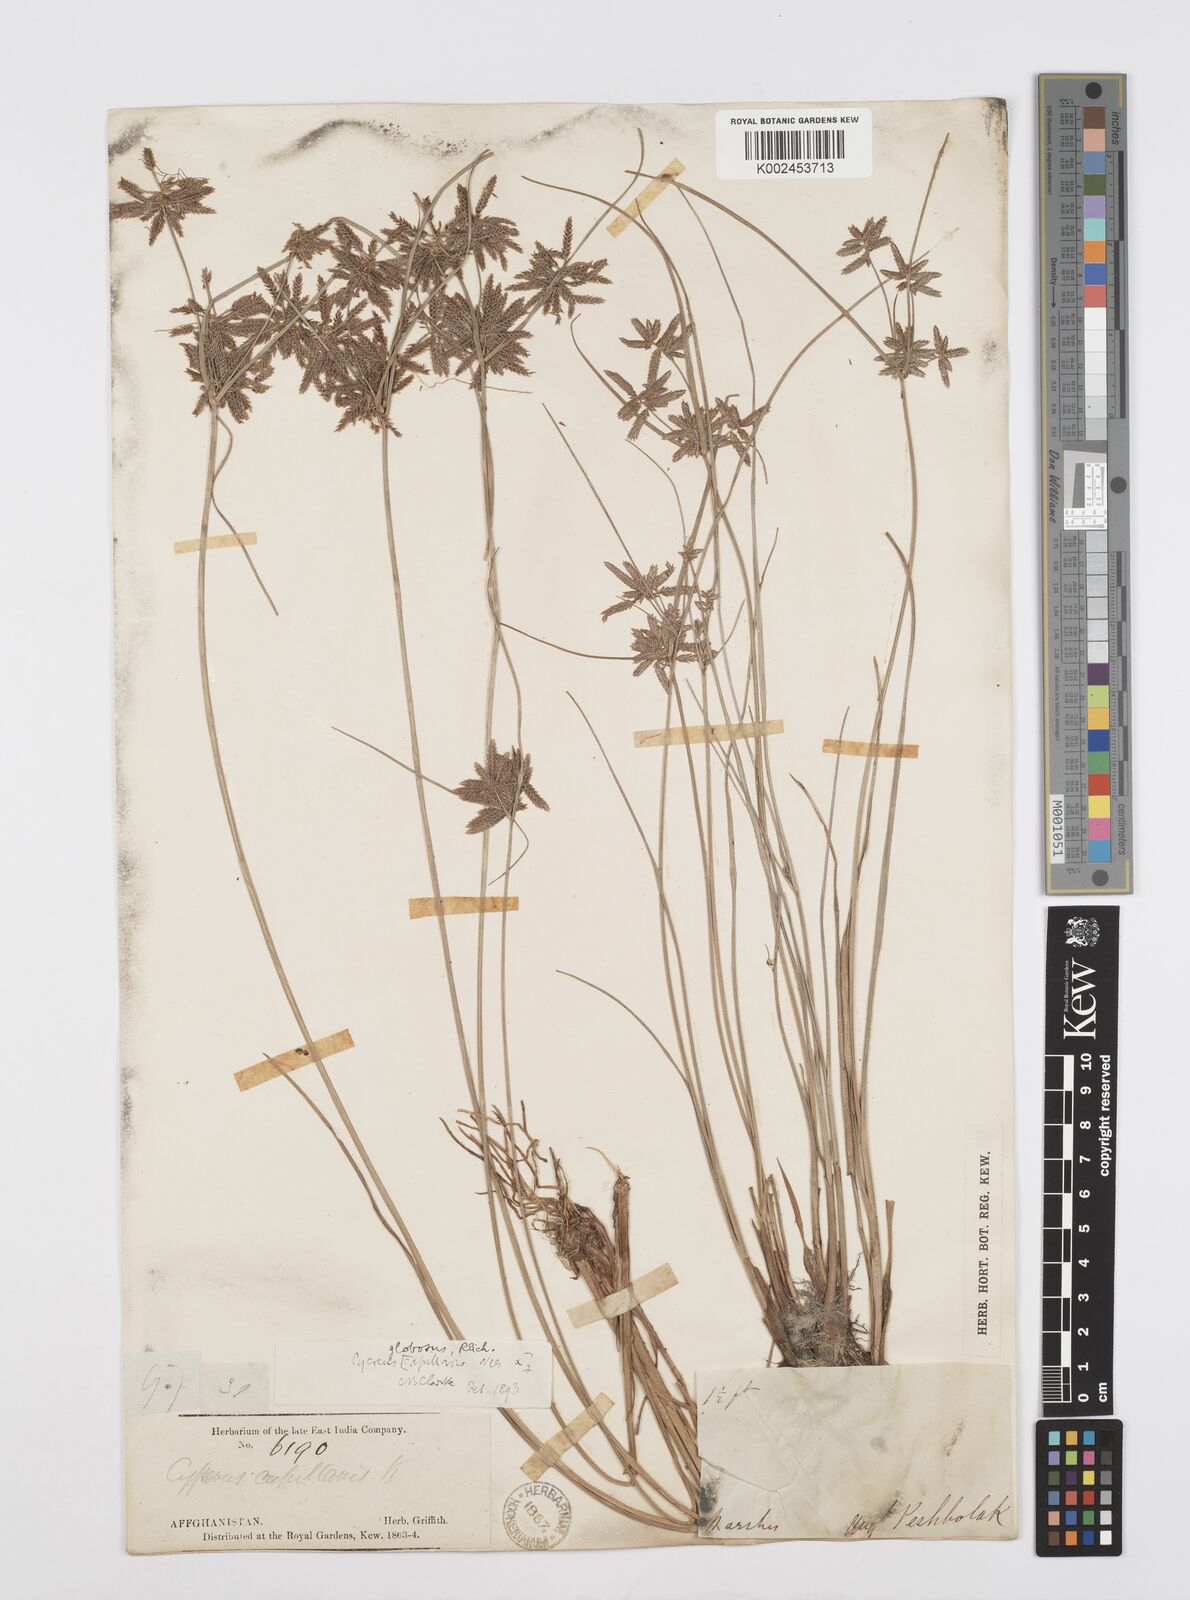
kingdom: Plantae
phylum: Tracheophyta
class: Liliopsida
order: Poales
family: Cyperaceae
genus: Cyperus
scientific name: Cyperus flavidus
